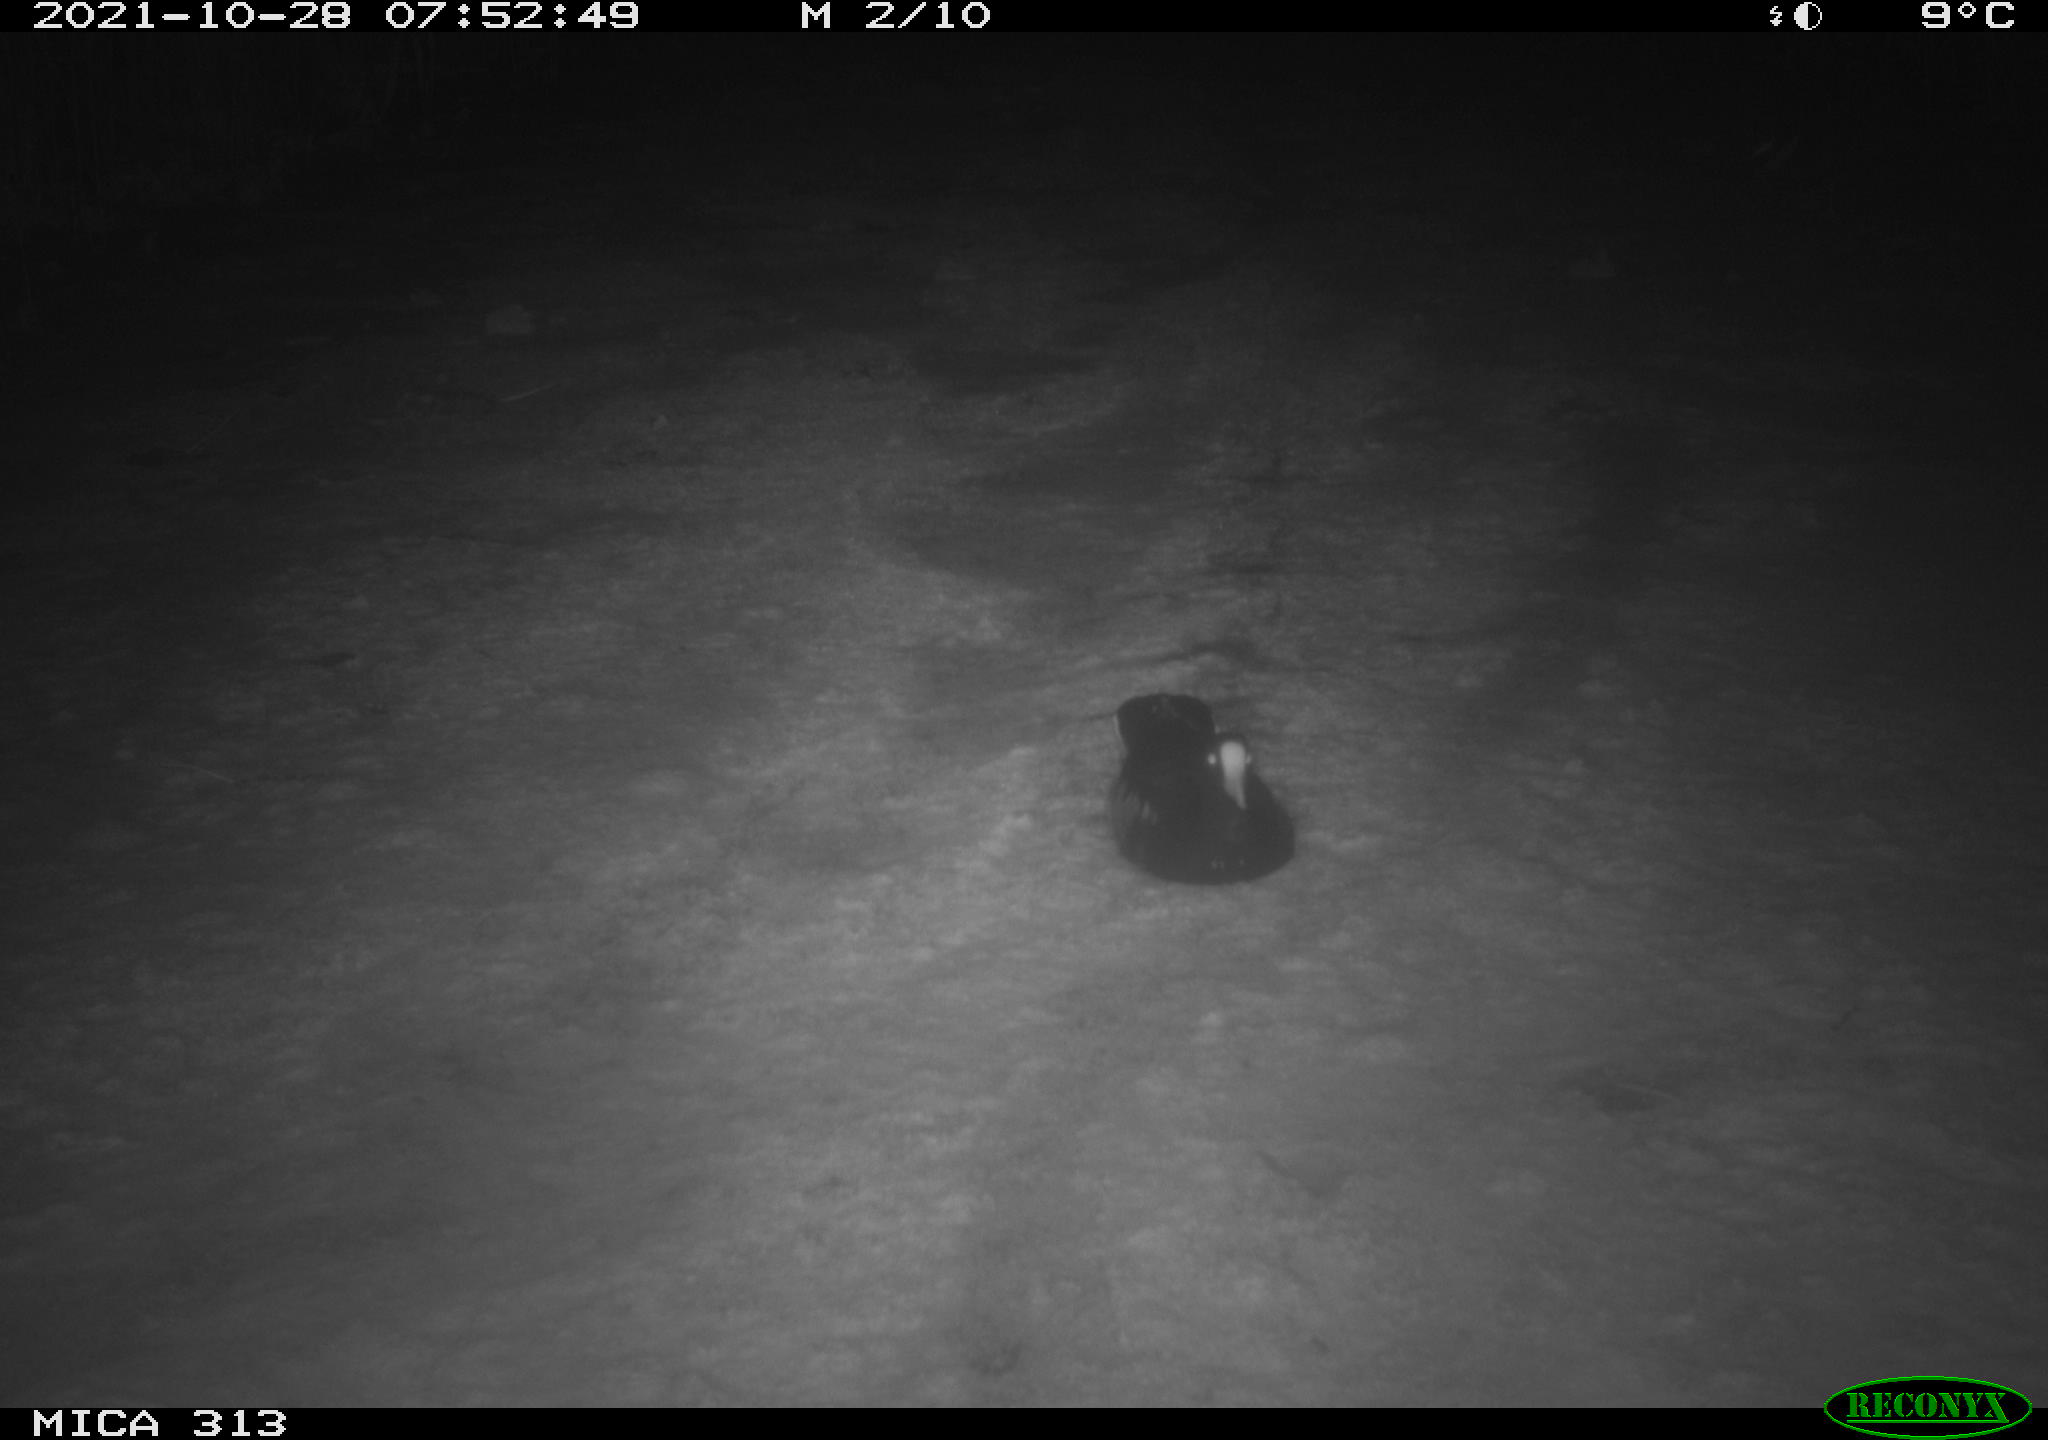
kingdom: Animalia
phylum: Chordata
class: Aves
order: Gruiformes
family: Rallidae
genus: Gallinula
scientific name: Gallinula chloropus
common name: Common moorhen
